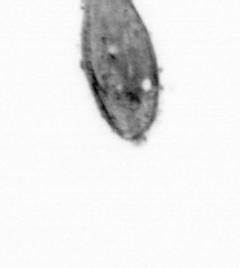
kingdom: Animalia
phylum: Arthropoda
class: Maxillopoda
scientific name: Maxillopoda
